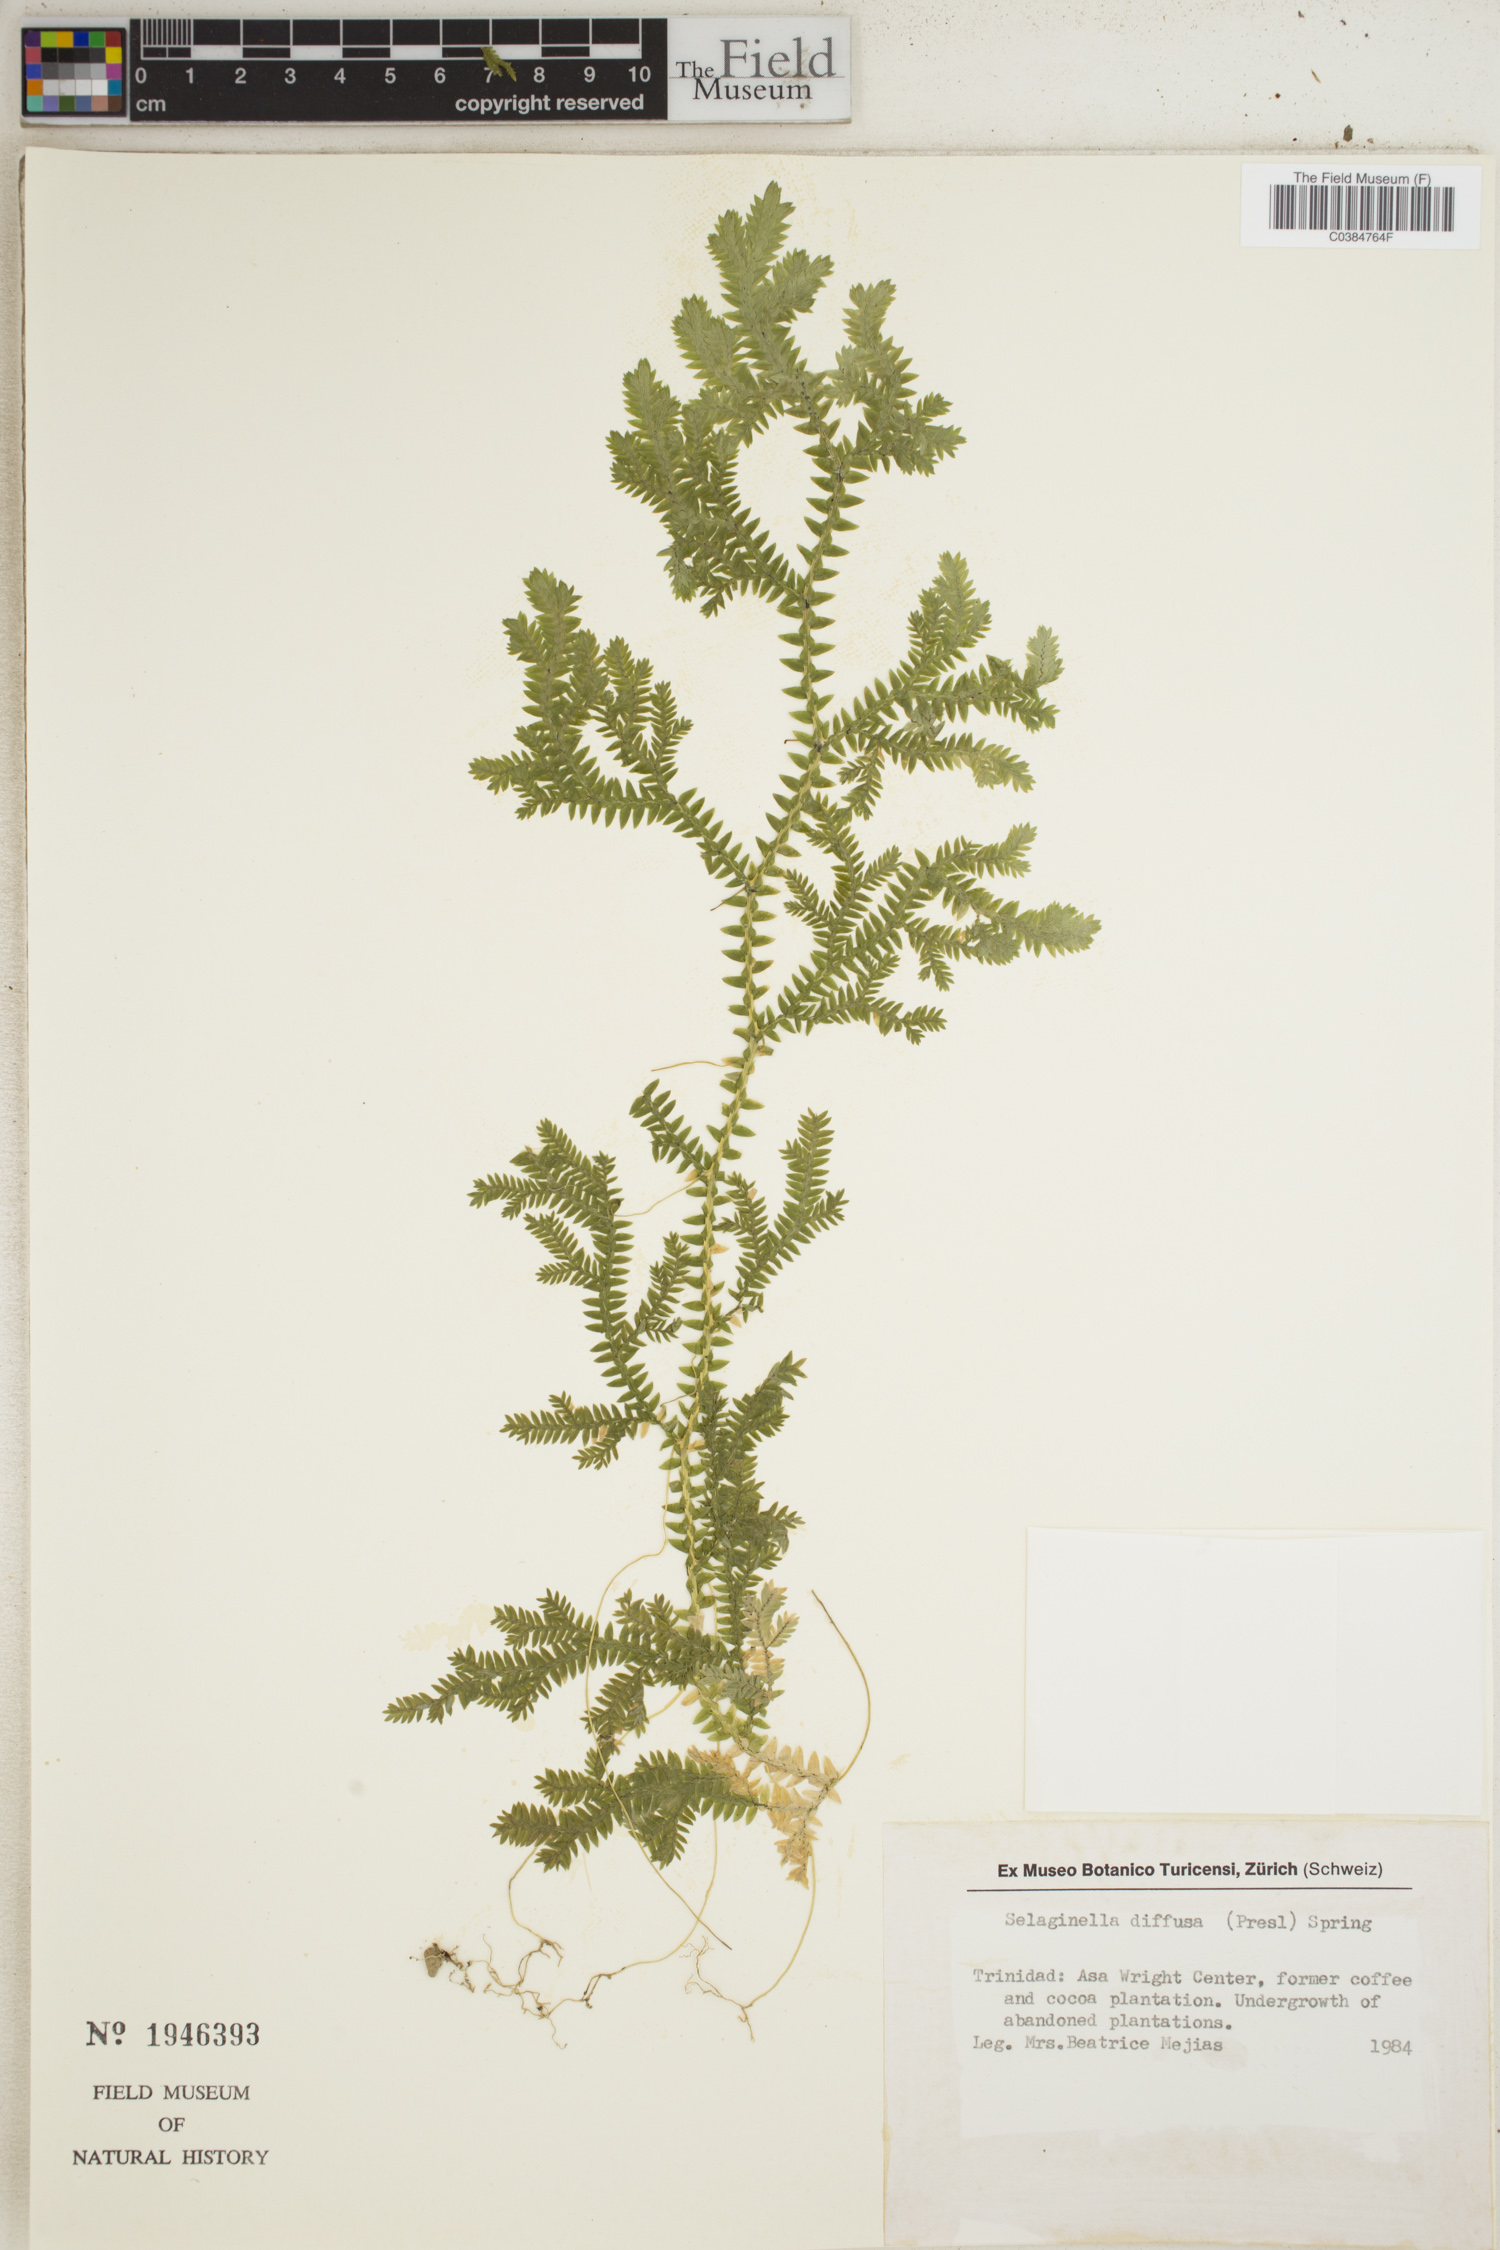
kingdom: Plantae
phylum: Tracheophyta
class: Lycopodiopsida
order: Selaginellales
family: Selaginellaceae
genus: Selaginella
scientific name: Selaginella diffusa
